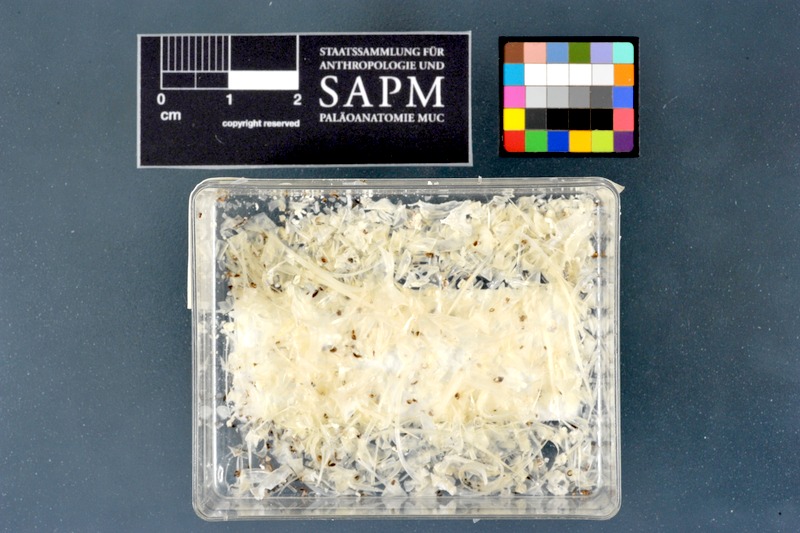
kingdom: Animalia
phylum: Chordata
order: Characiformes
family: Alestidae
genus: Phenacogrammus
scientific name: Phenacogrammus interruptus
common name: Congo tetra
